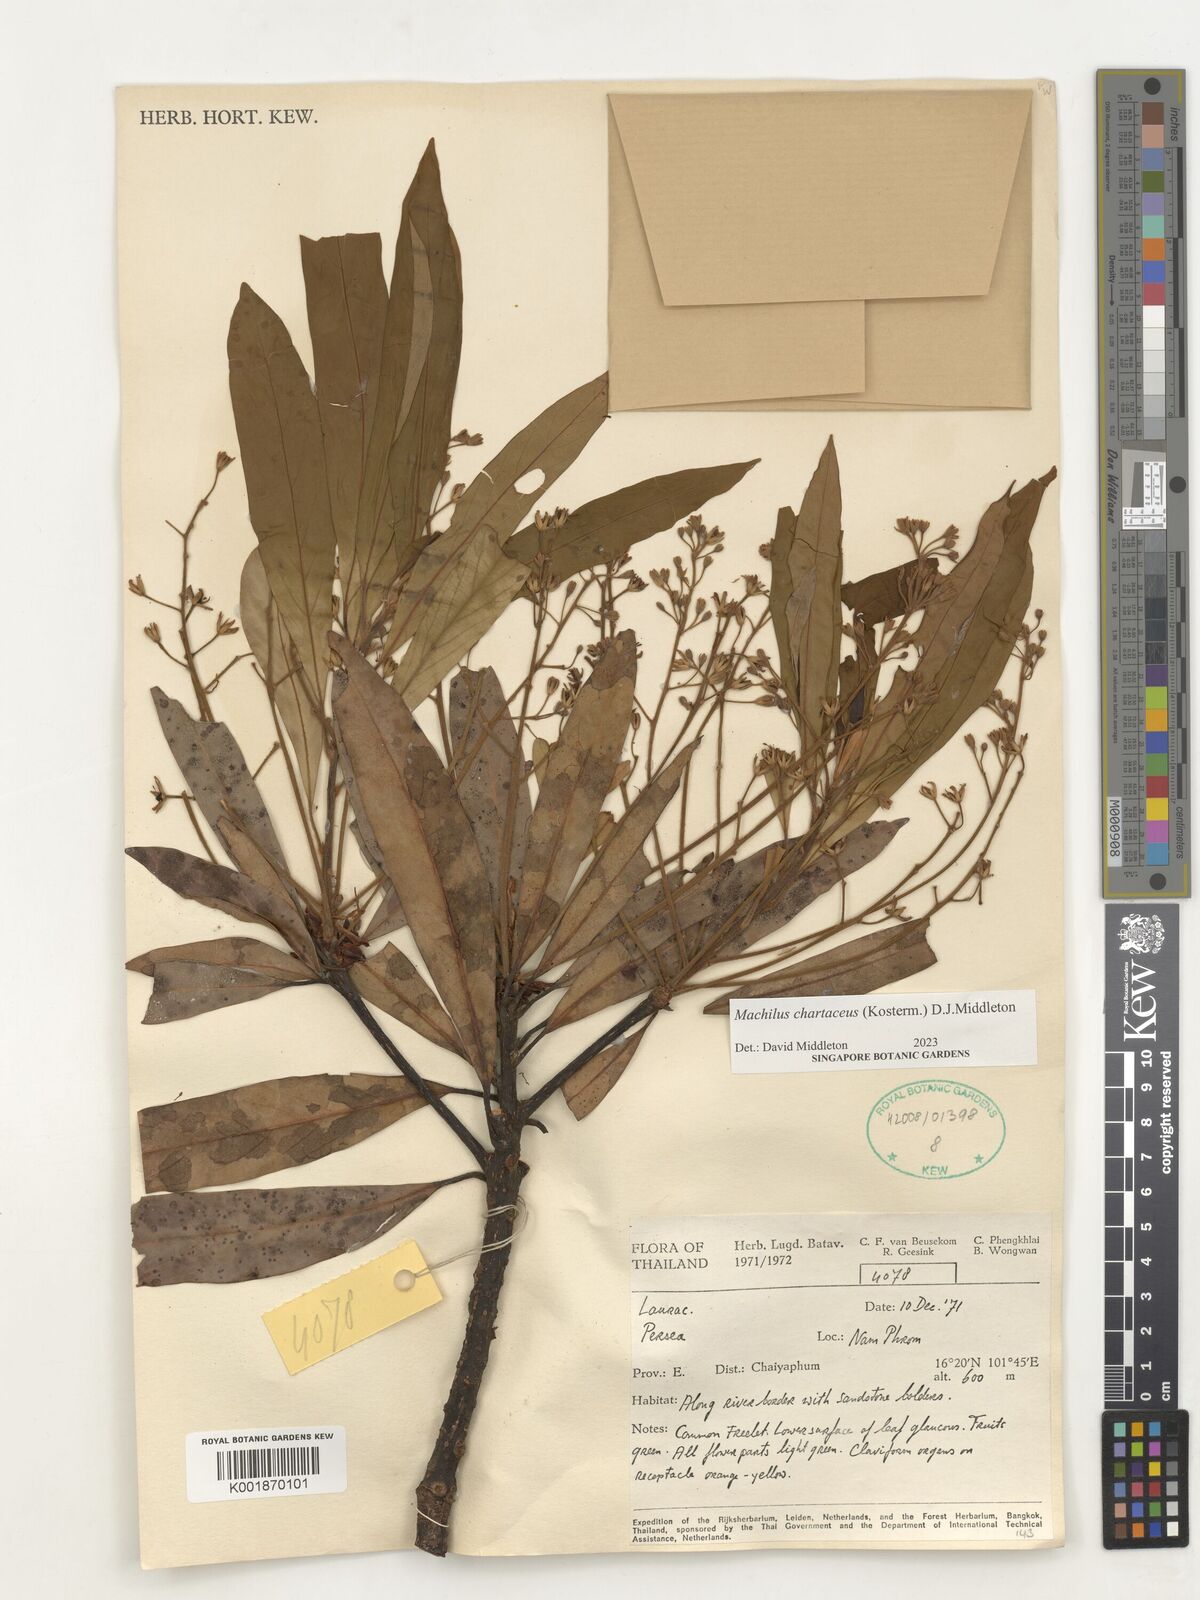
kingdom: Plantae
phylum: Tracheophyta
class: Magnoliopsida
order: Laurales
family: Lauraceae
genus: Machilus
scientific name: Machilus
